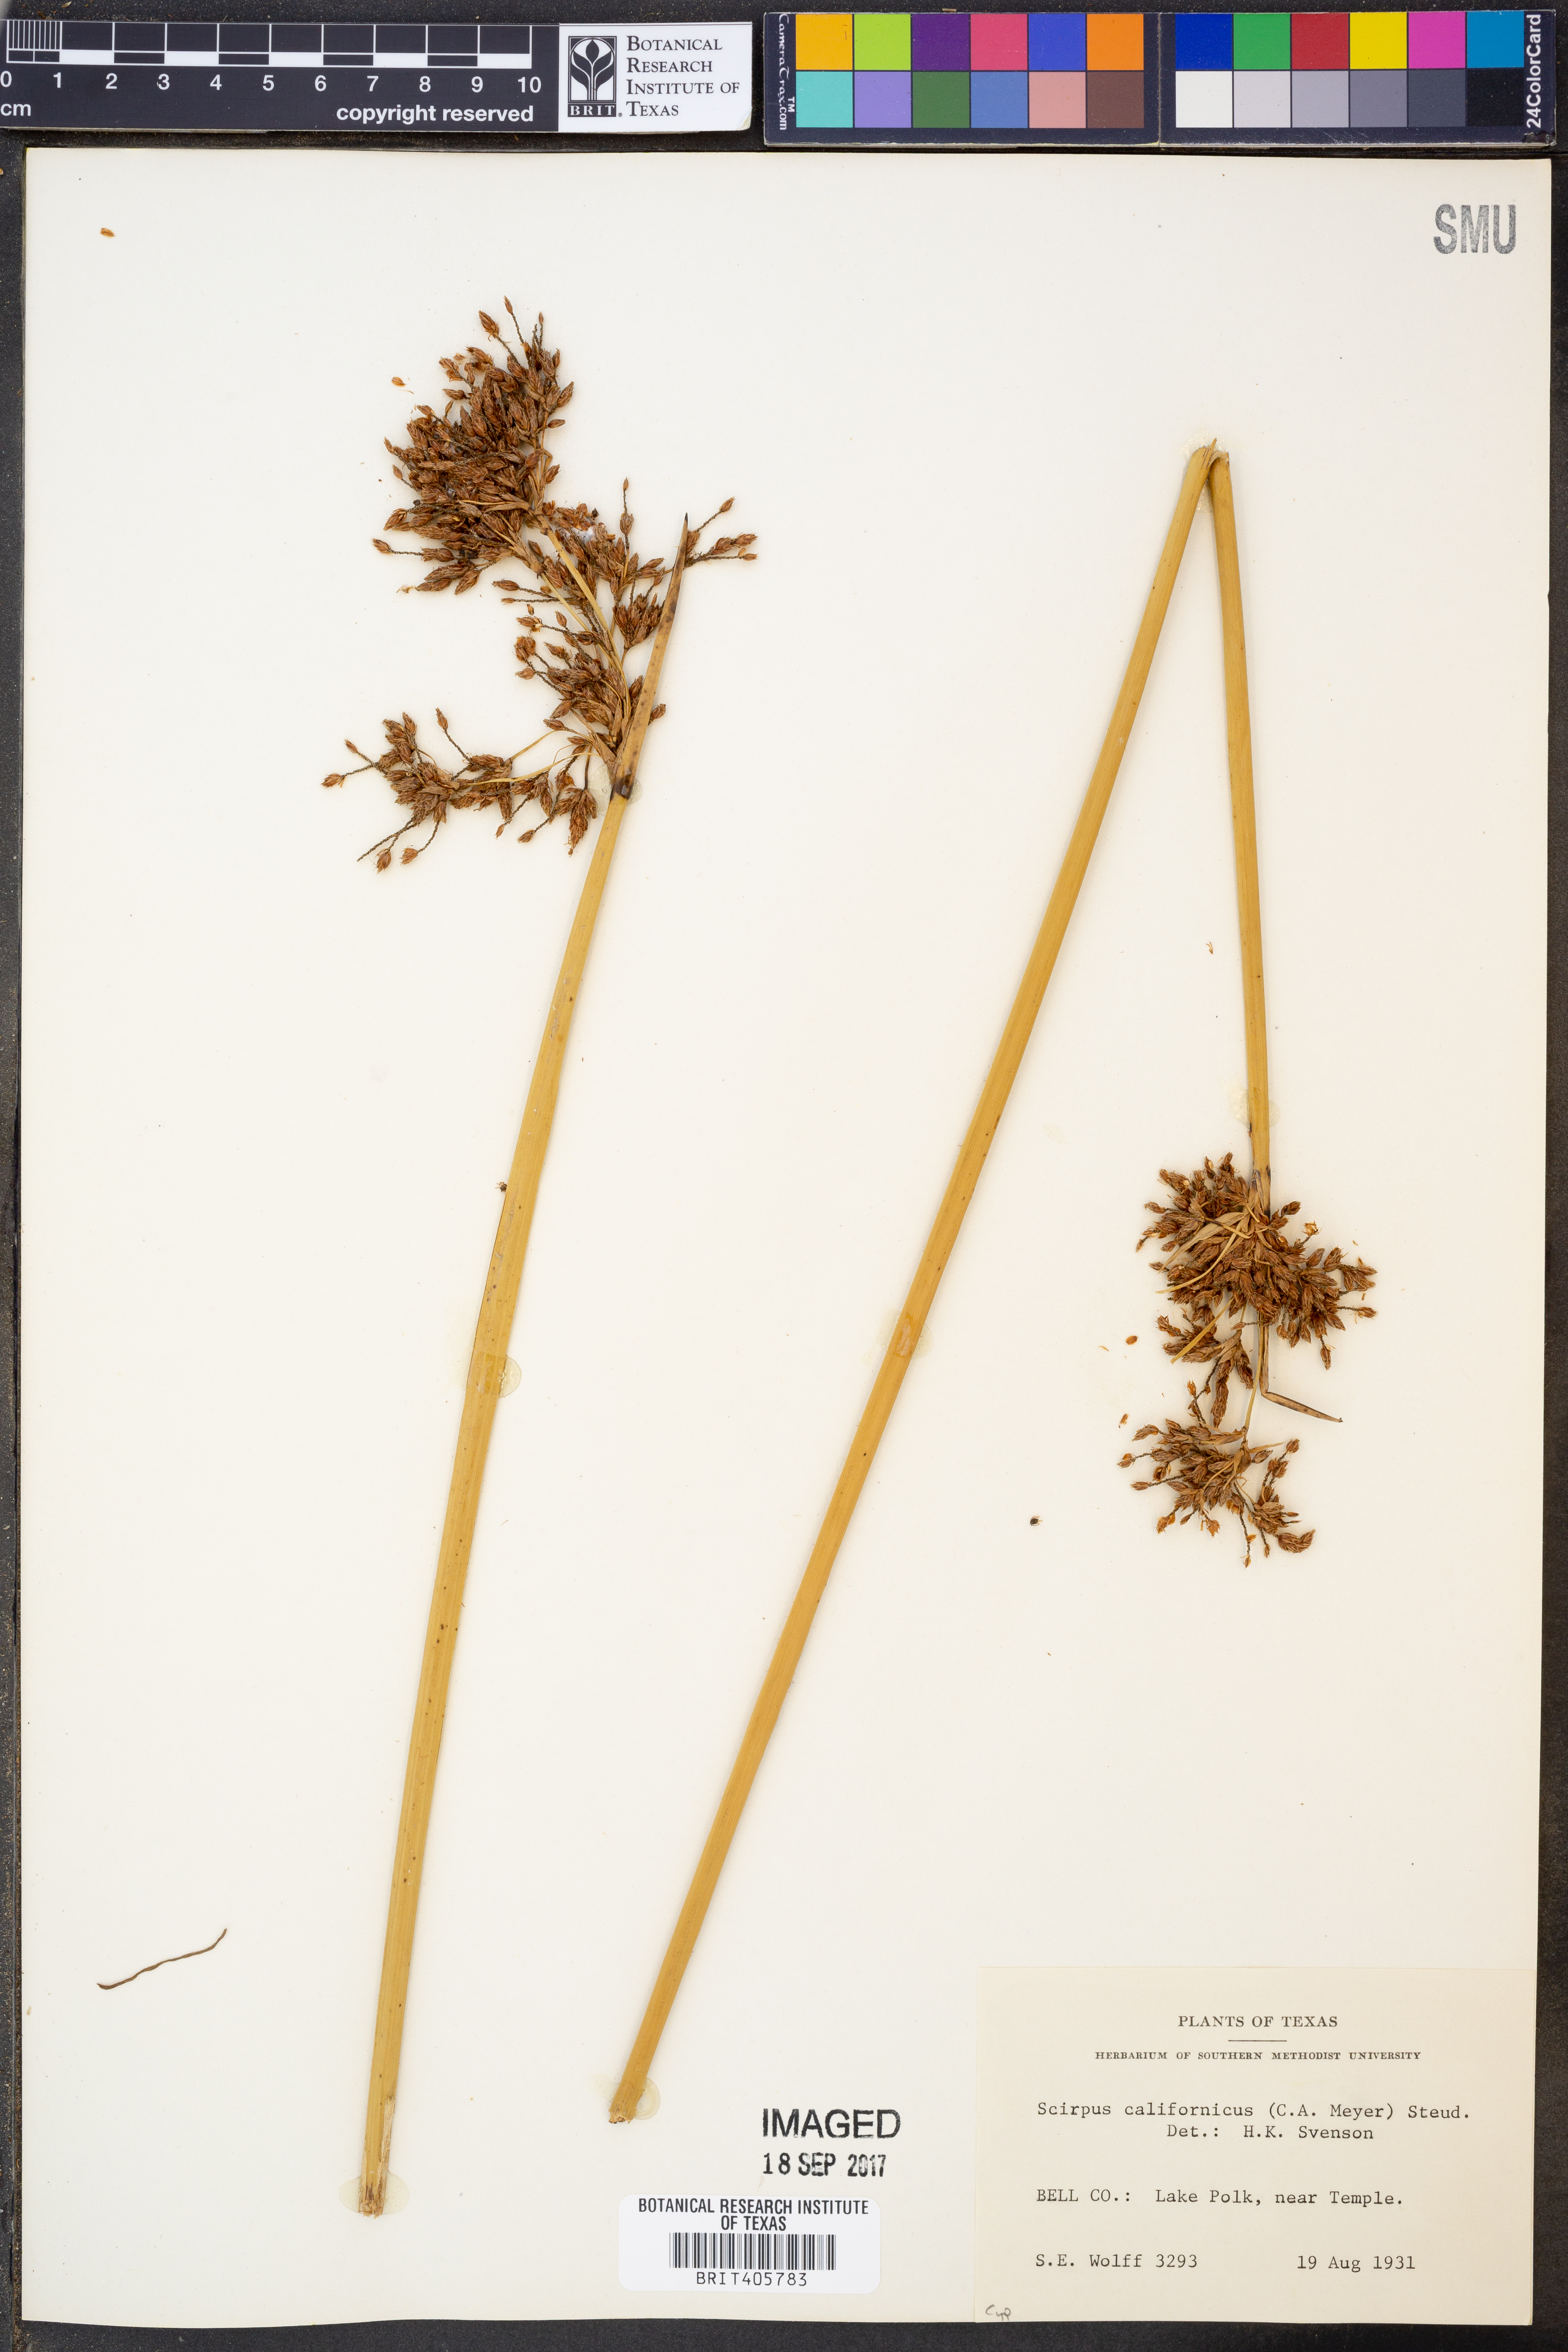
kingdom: Plantae
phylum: Tracheophyta
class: Liliopsida
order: Poales
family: Cyperaceae
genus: Schoenoplectus
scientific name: Schoenoplectus californicus
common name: California bulrush
